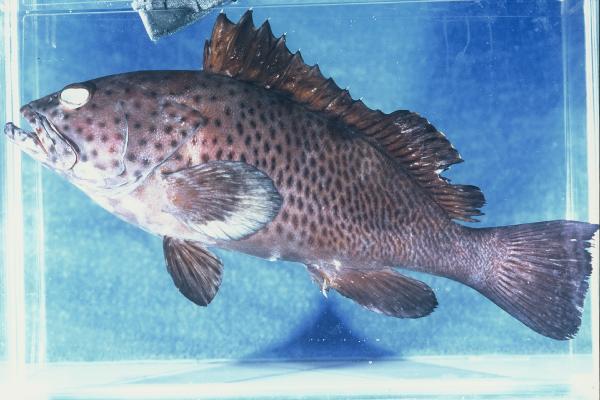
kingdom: Animalia
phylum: Chordata
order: Perciformes
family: Serranidae
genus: Epinephelus
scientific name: Epinephelus longispinis
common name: Longspine grouper
